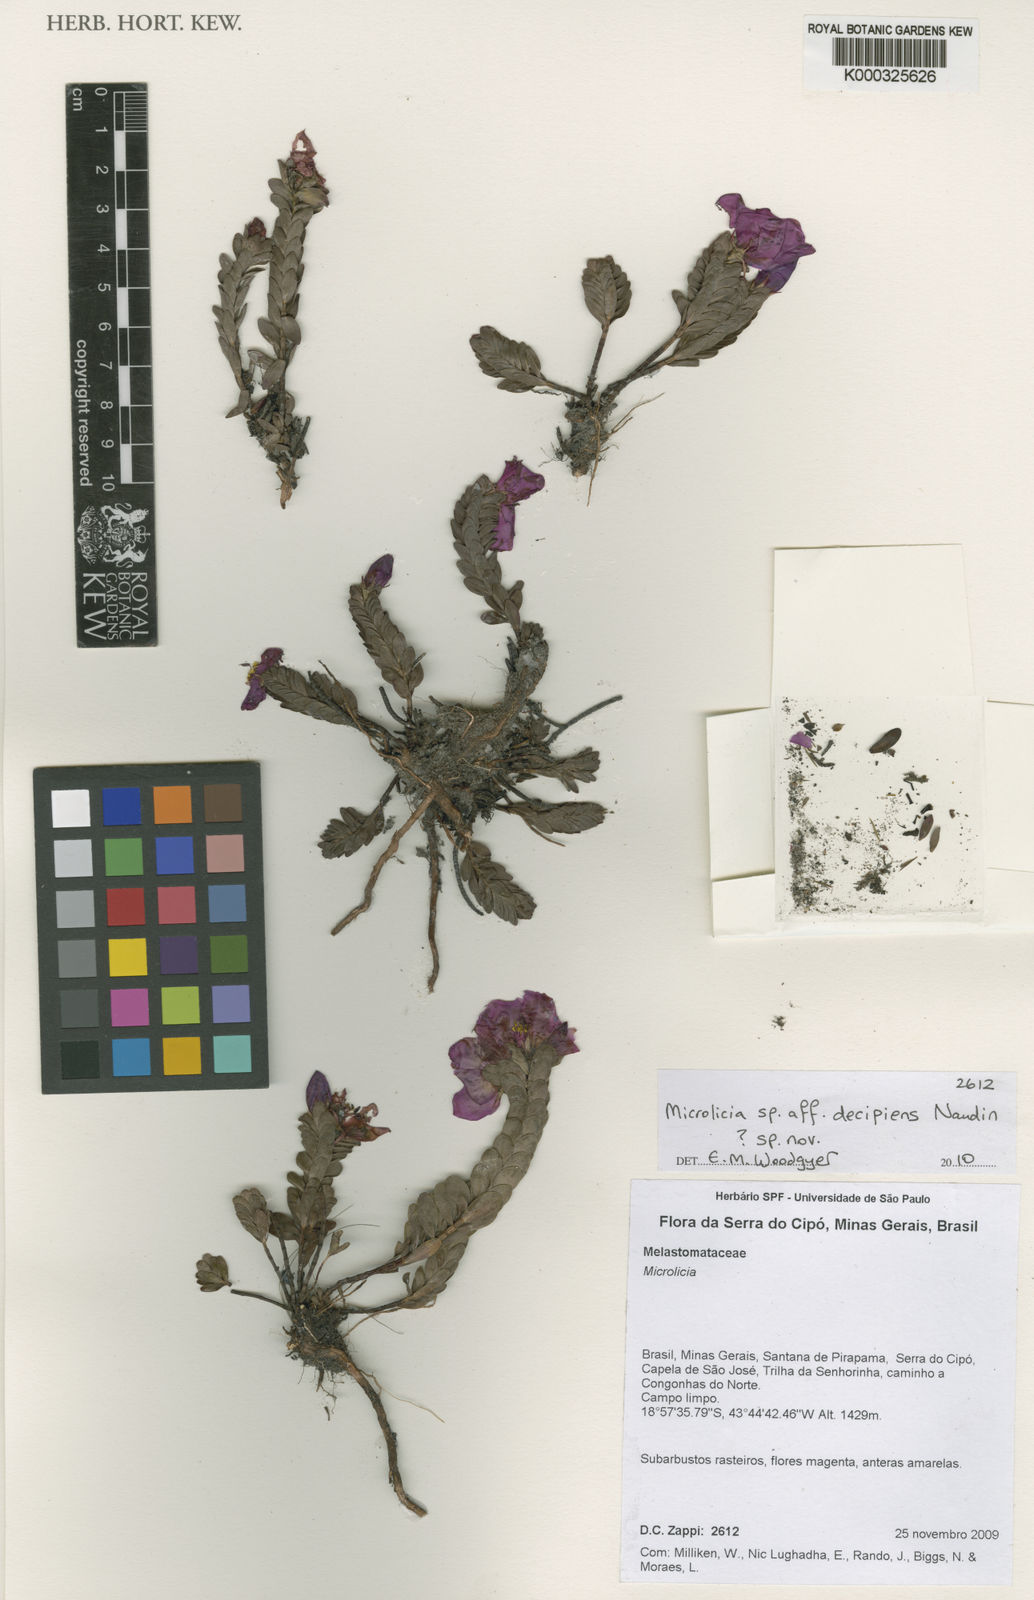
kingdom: Plantae
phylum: Tracheophyta
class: Magnoliopsida
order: Myrtales
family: Melastomataceae
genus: Microlicia
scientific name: Microlicia riedeliana
